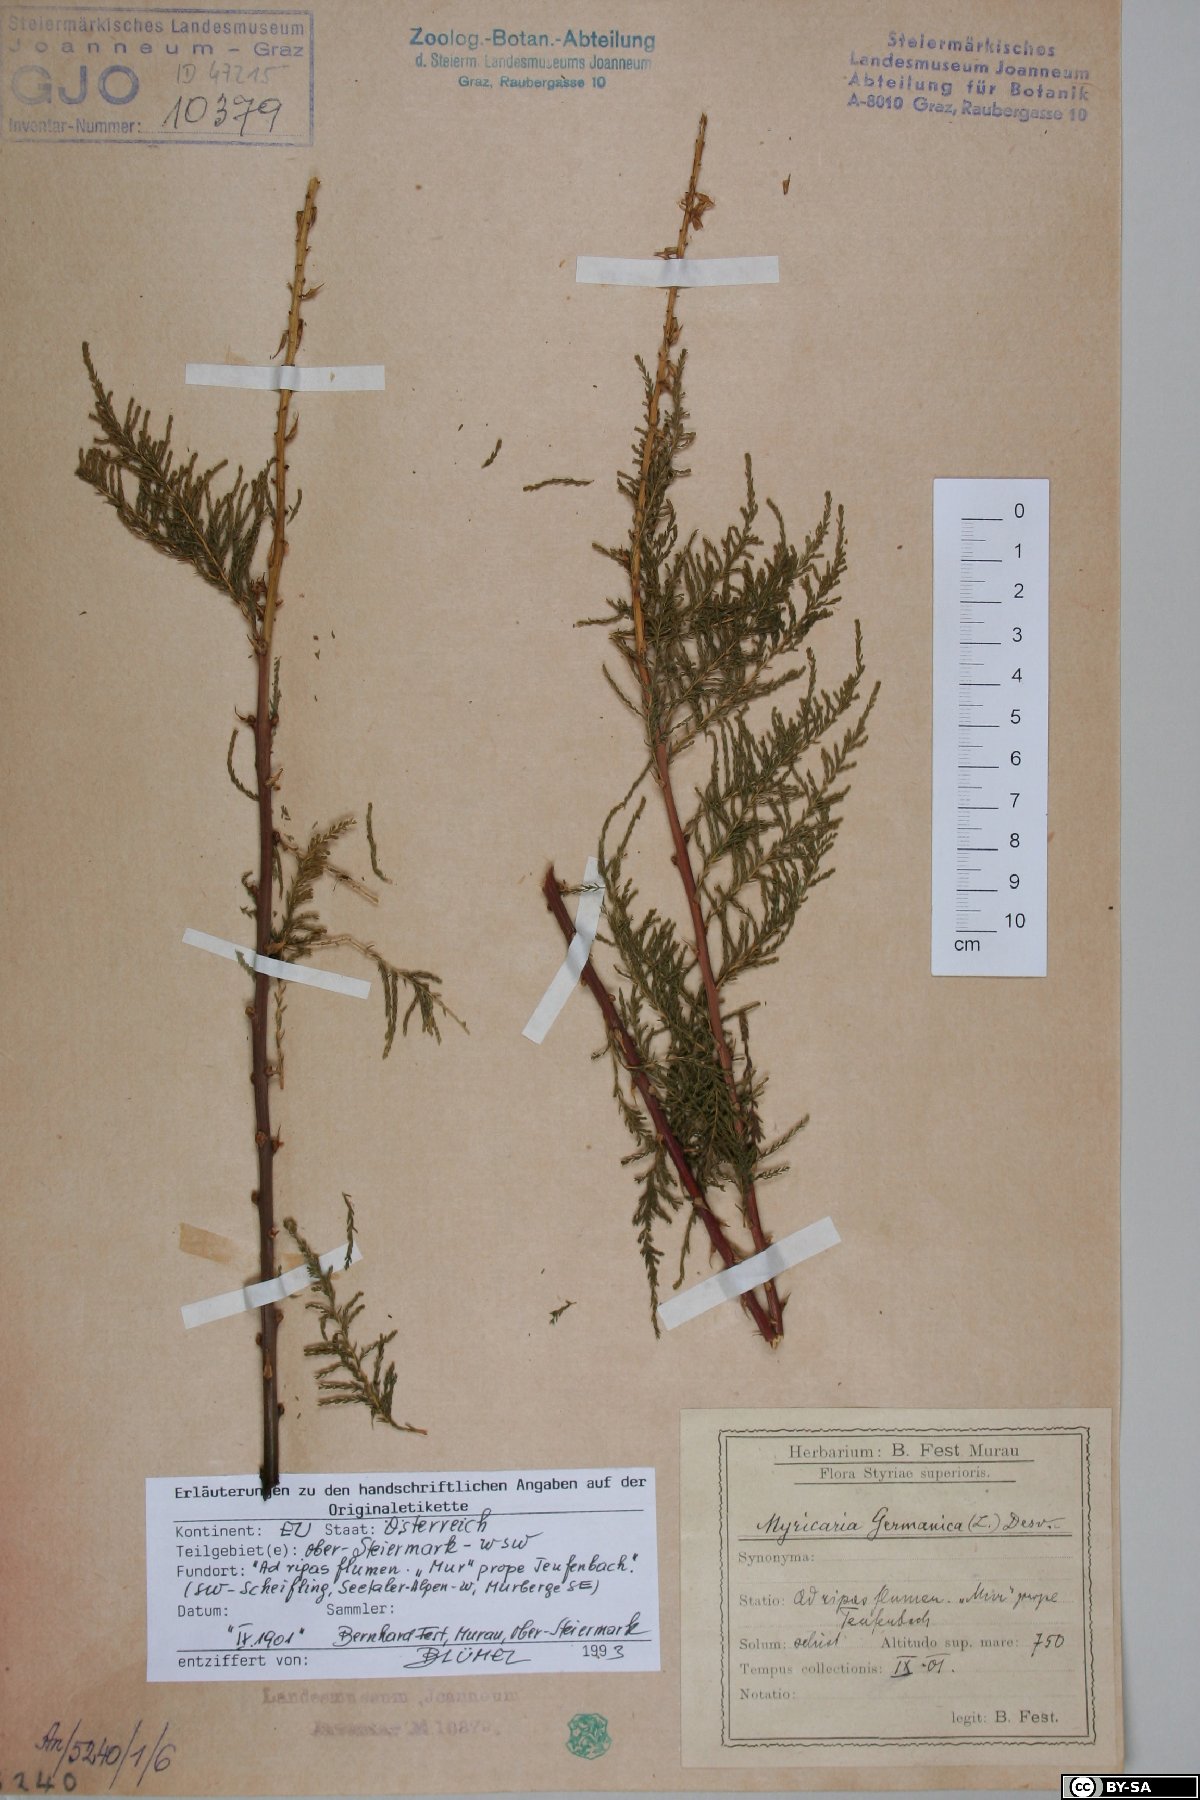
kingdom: Plantae
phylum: Tracheophyta
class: Magnoliopsida
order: Caryophyllales
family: Tamaricaceae
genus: Myricaria
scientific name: Myricaria germanica
